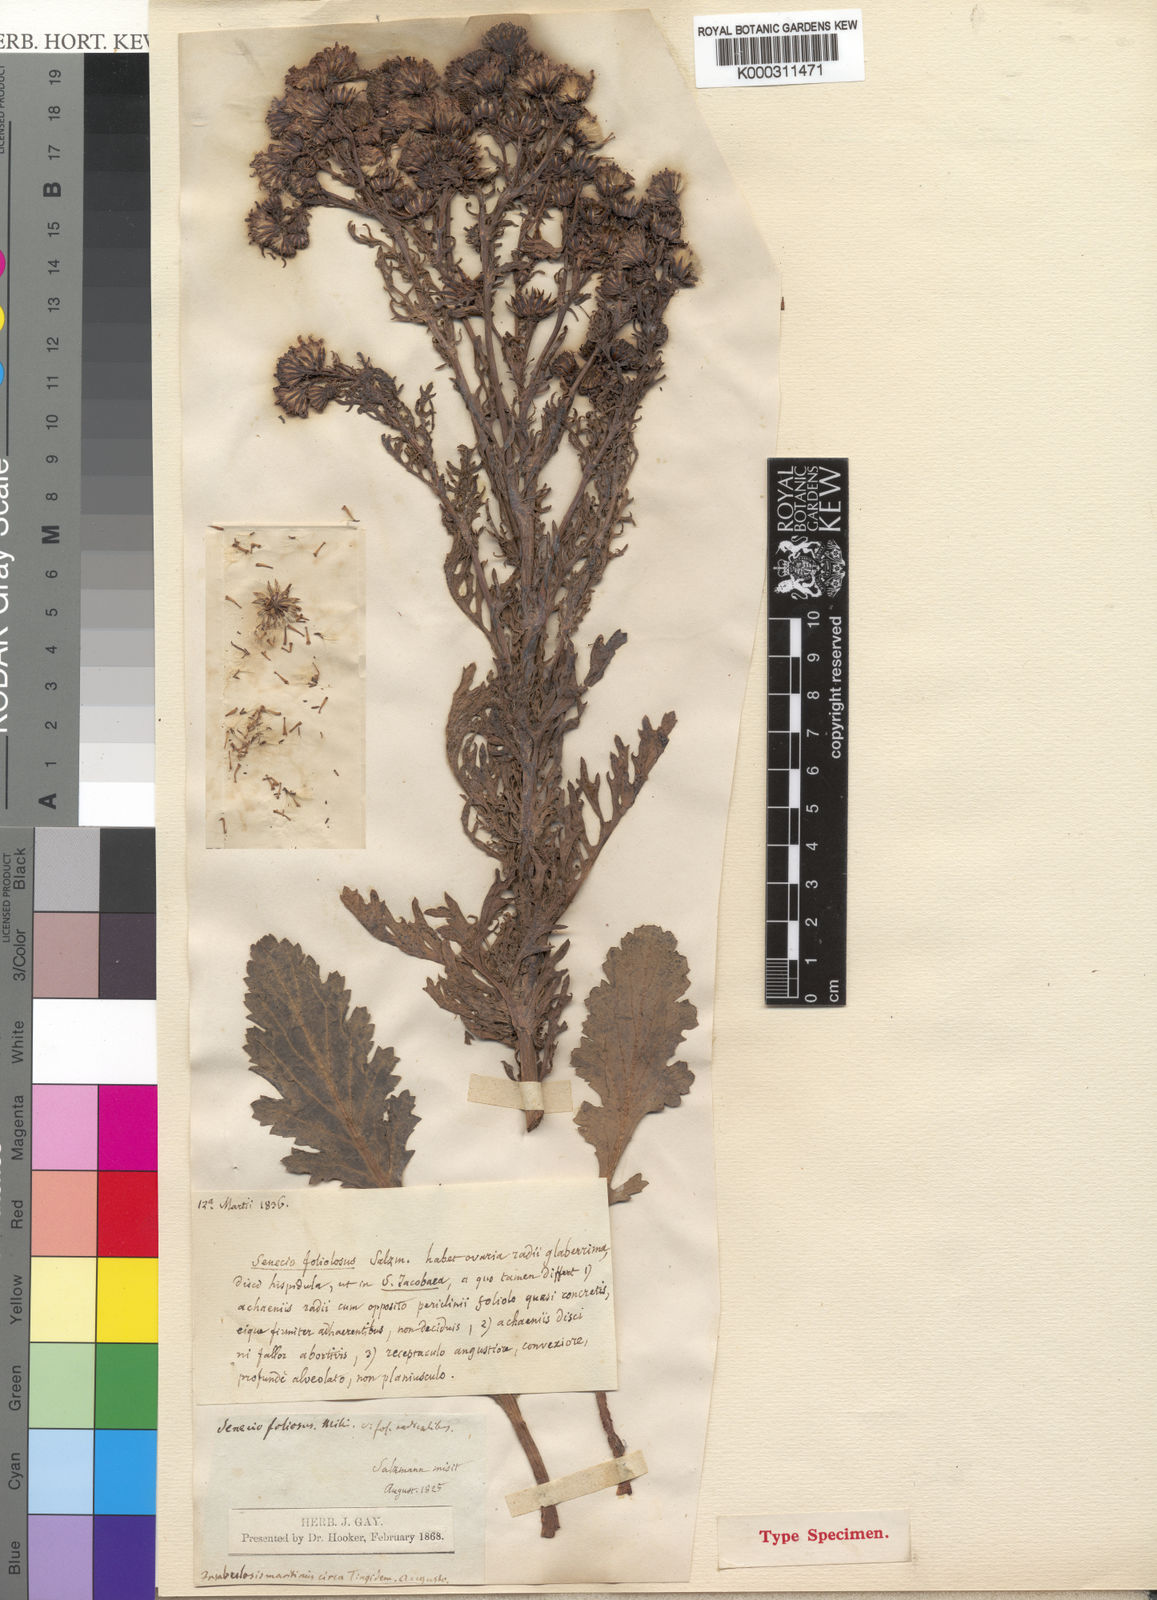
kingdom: Plantae
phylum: Tracheophyta
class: Magnoliopsida
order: Asterales
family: Asteraceae
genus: Senecio
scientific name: Senecio
